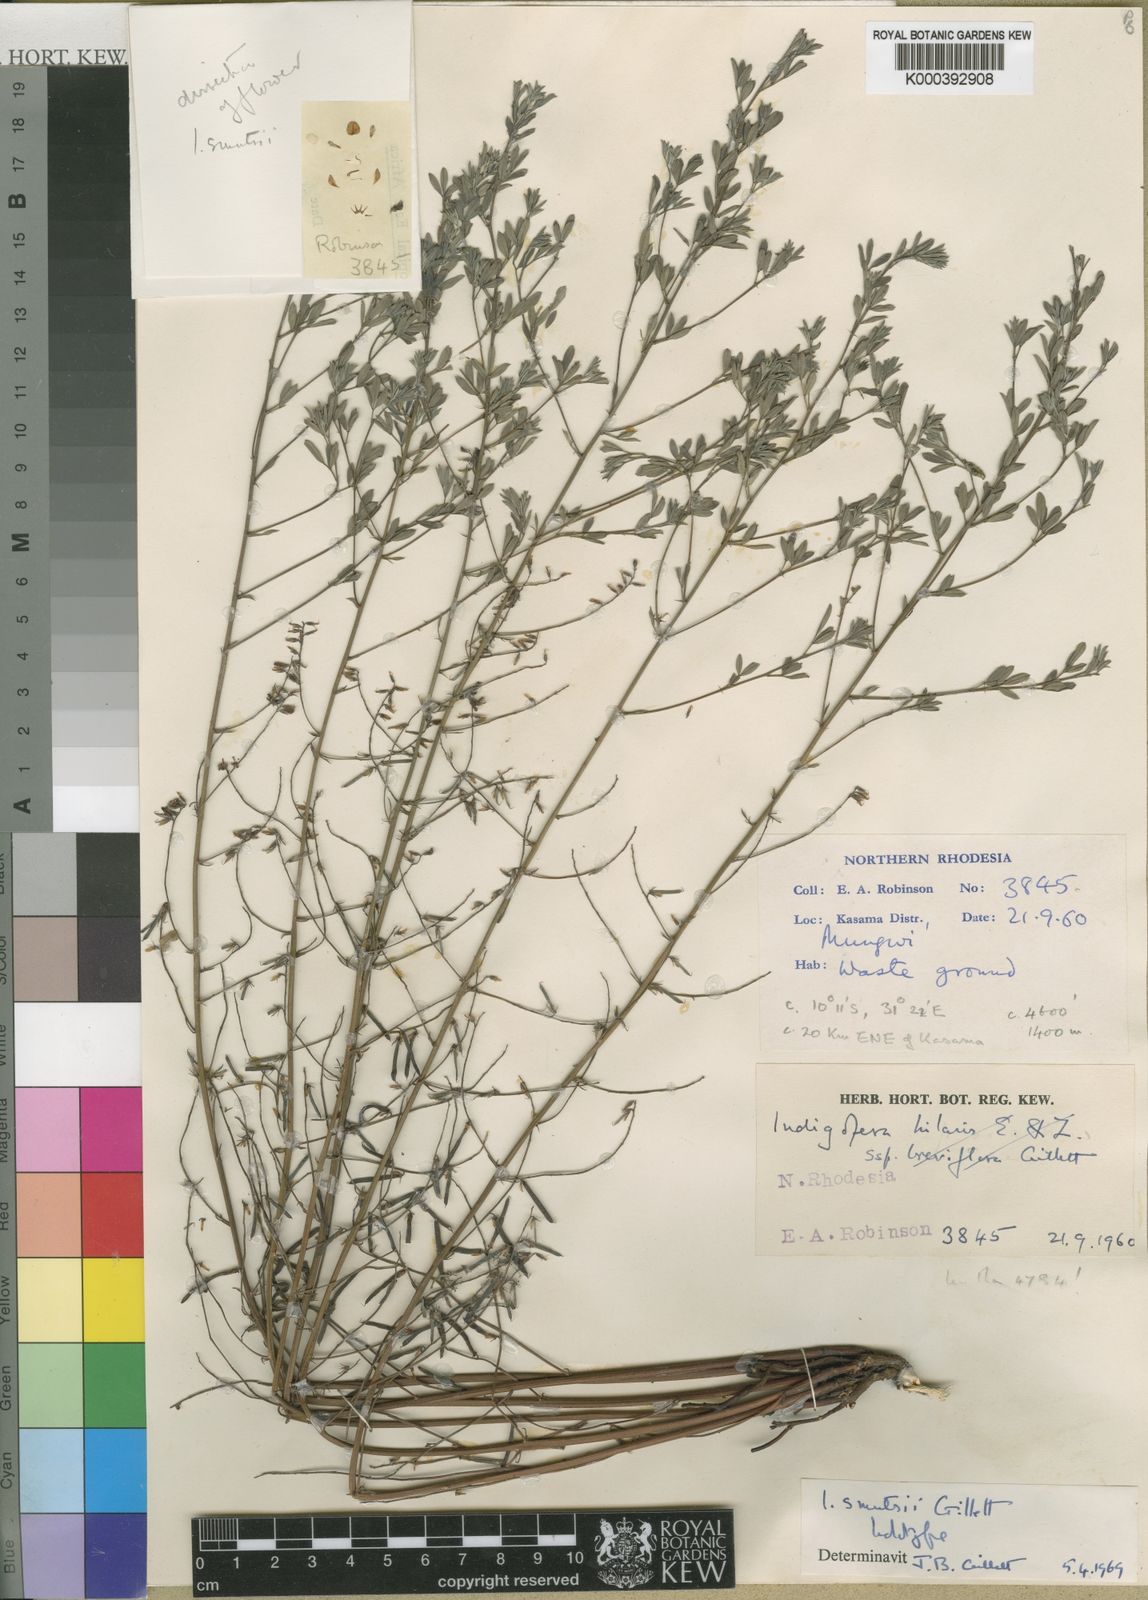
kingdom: Plantae
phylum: Tracheophyta
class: Magnoliopsida
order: Fabales
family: Fabaceae
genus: Indigofera
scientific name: Indigofera smutsii
